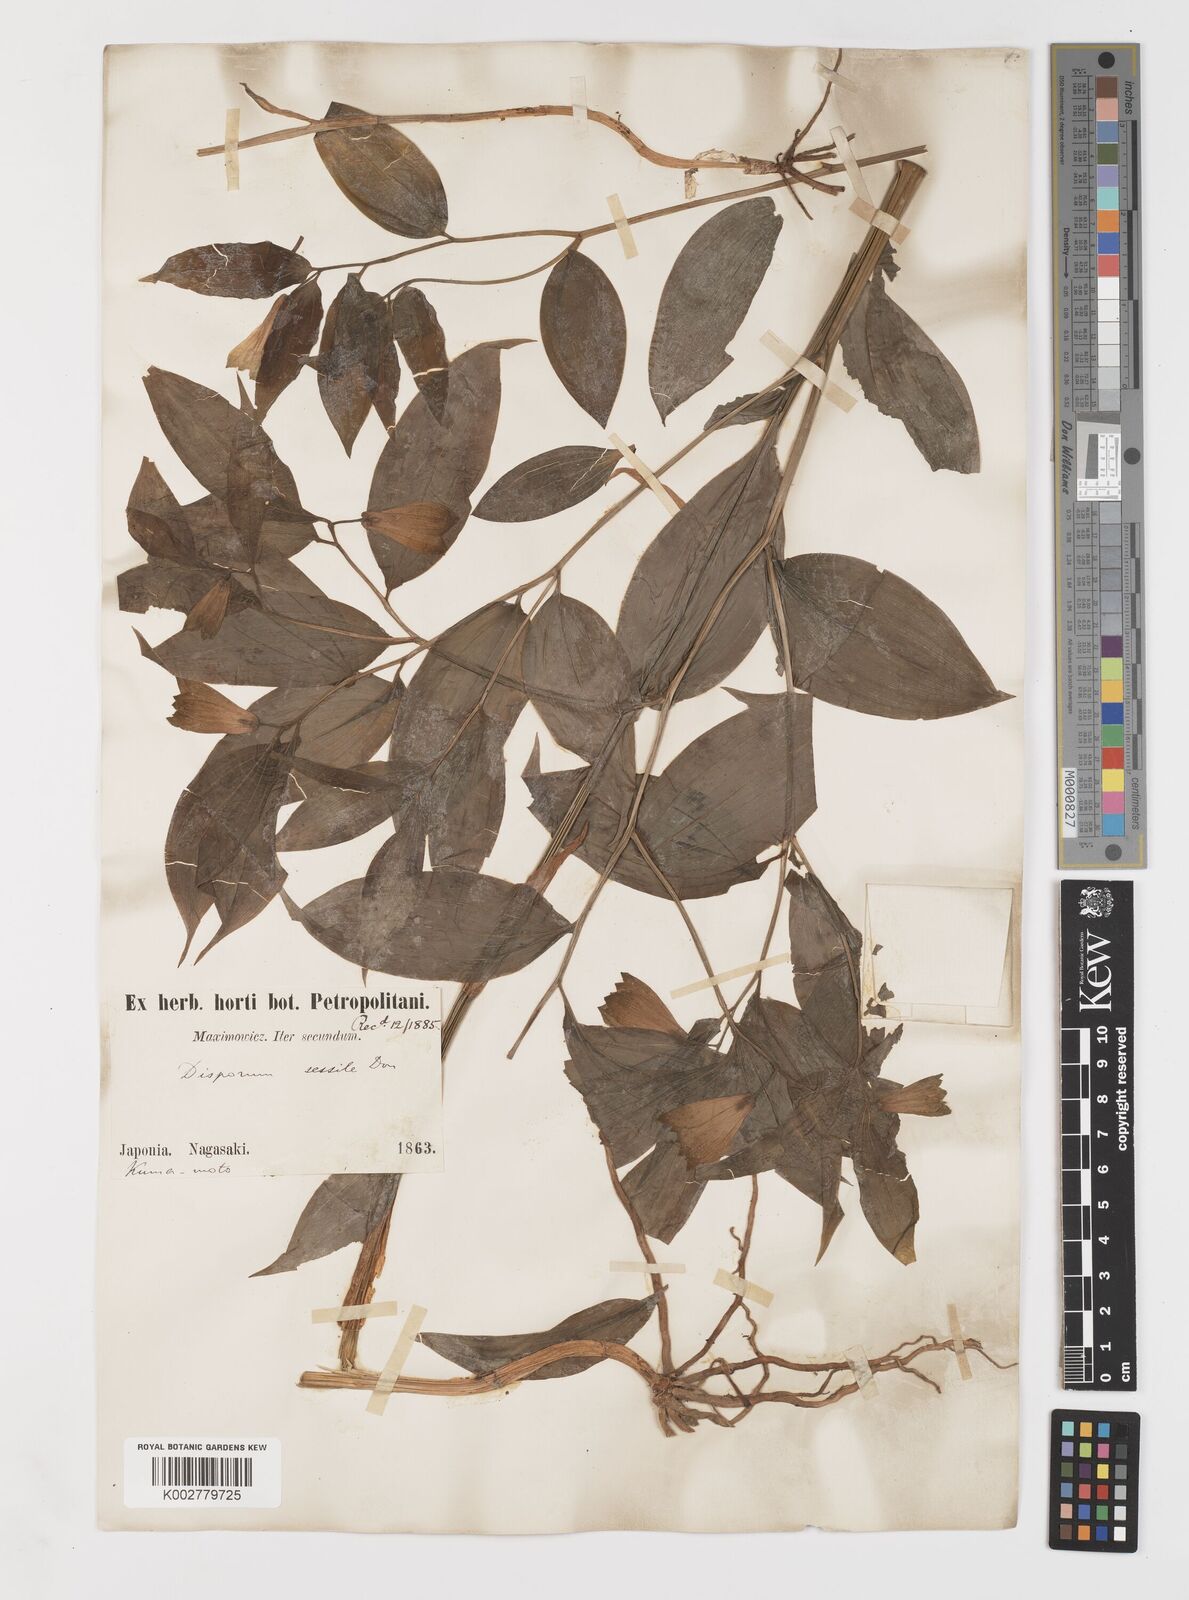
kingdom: Plantae
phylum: Tracheophyta
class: Liliopsida
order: Liliales
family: Colchicaceae
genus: Disporum
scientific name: Disporum sessile
